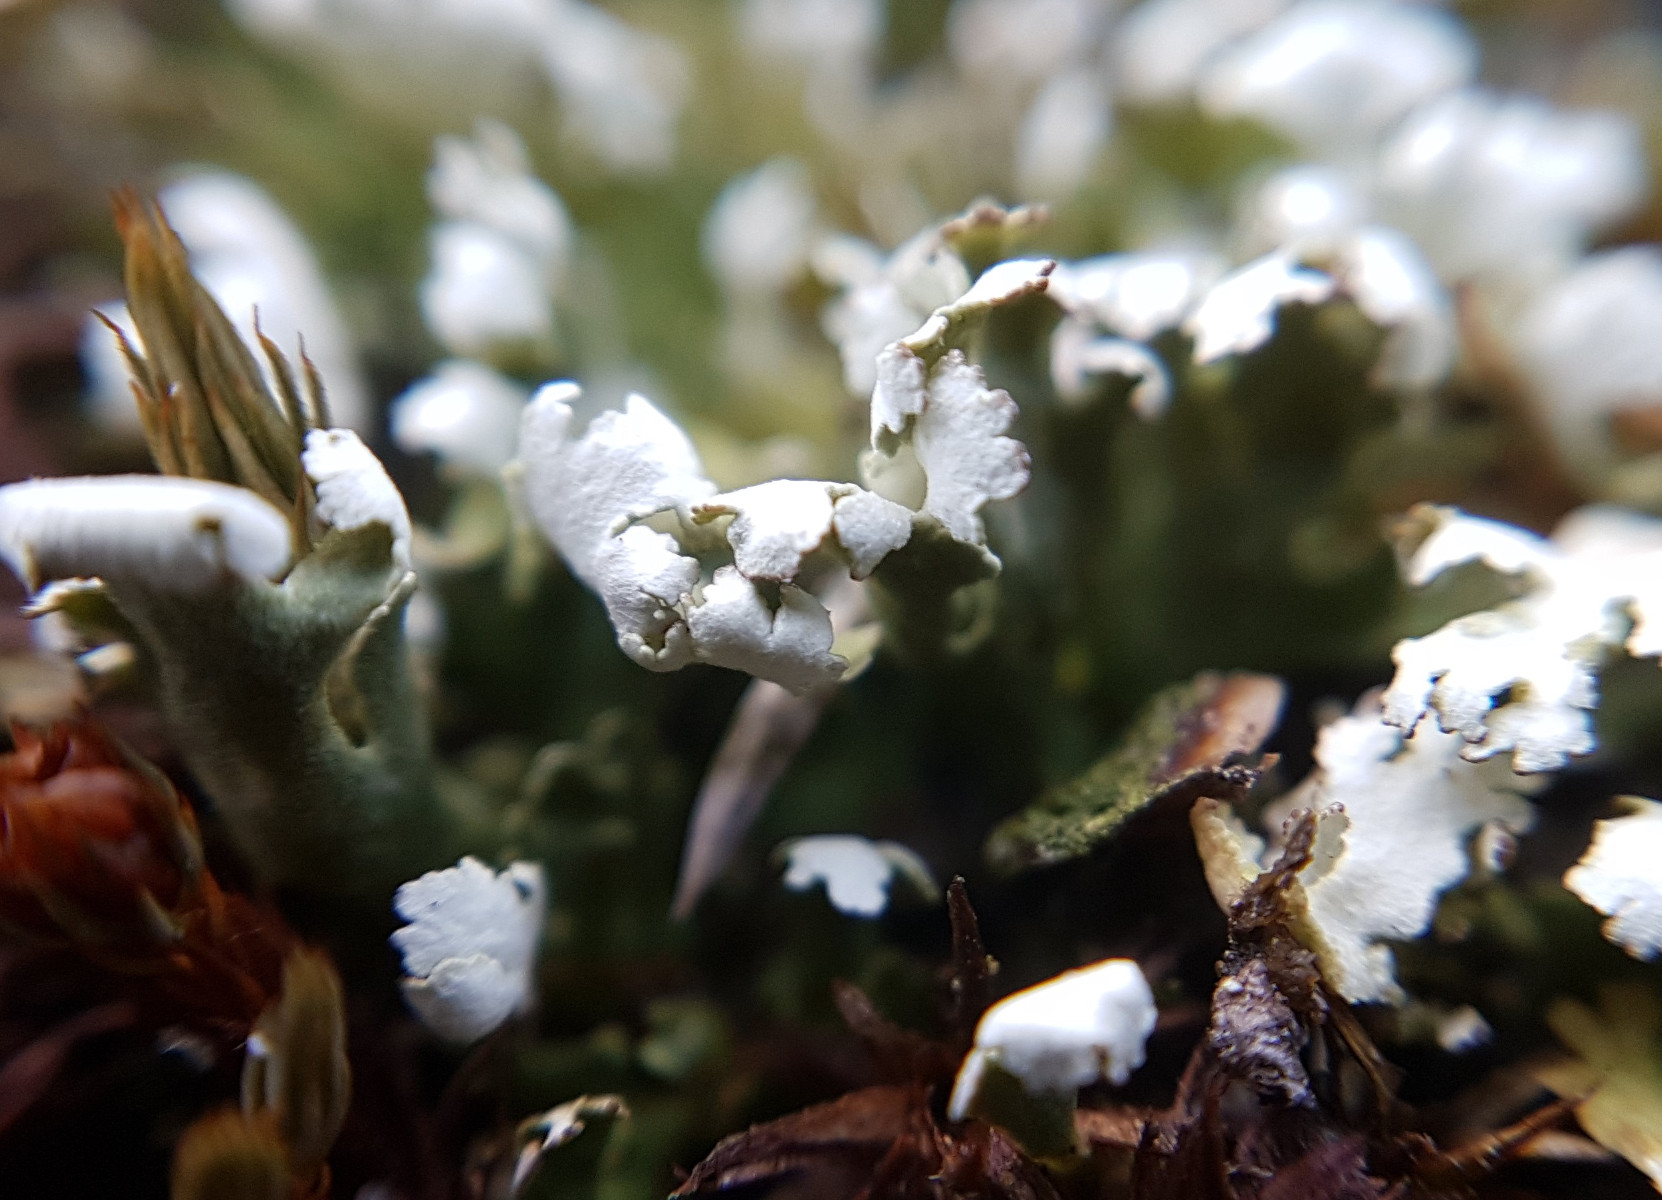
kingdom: Fungi
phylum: Ascomycota
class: Lecanoromycetes
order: Lecanorales
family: Cladoniaceae
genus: Cladonia
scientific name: Cladonia foliacea
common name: fliget bægerlav
